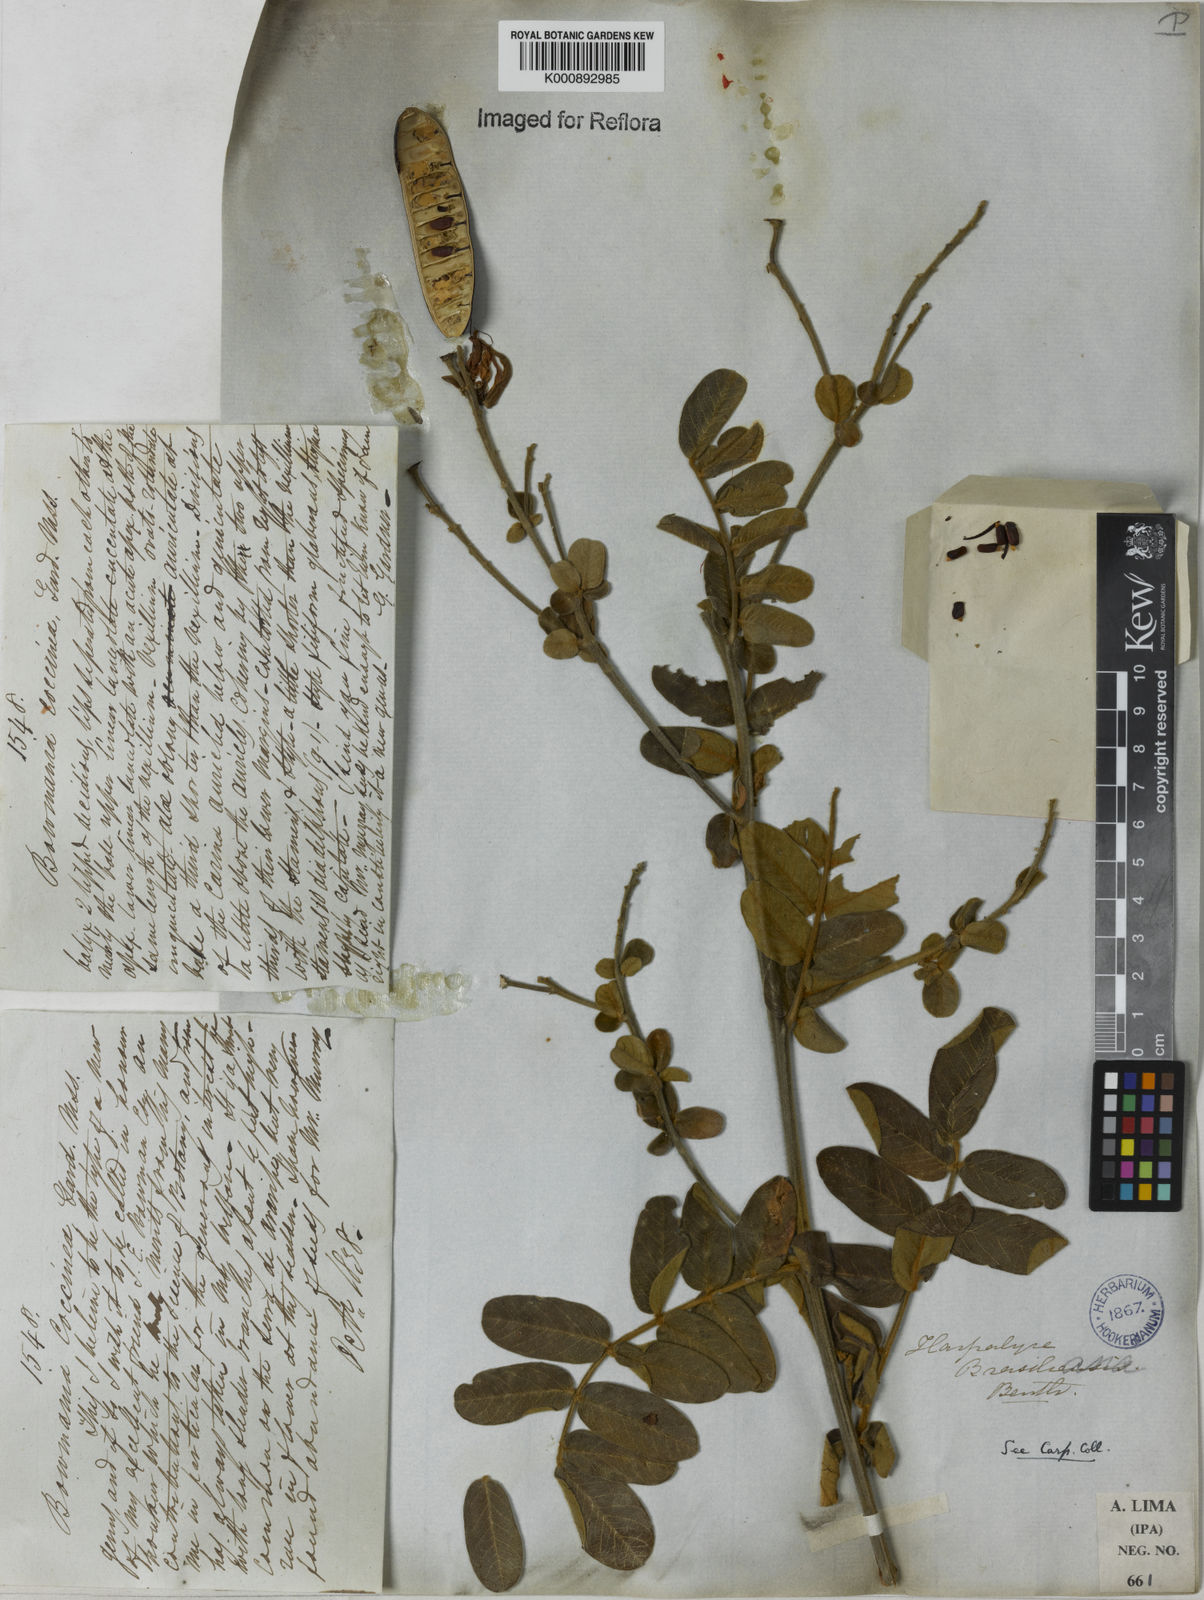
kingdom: Plantae
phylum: Tracheophyta
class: Magnoliopsida
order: Fabales
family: Fabaceae
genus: Harpalyce
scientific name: Harpalyce brasiliana
